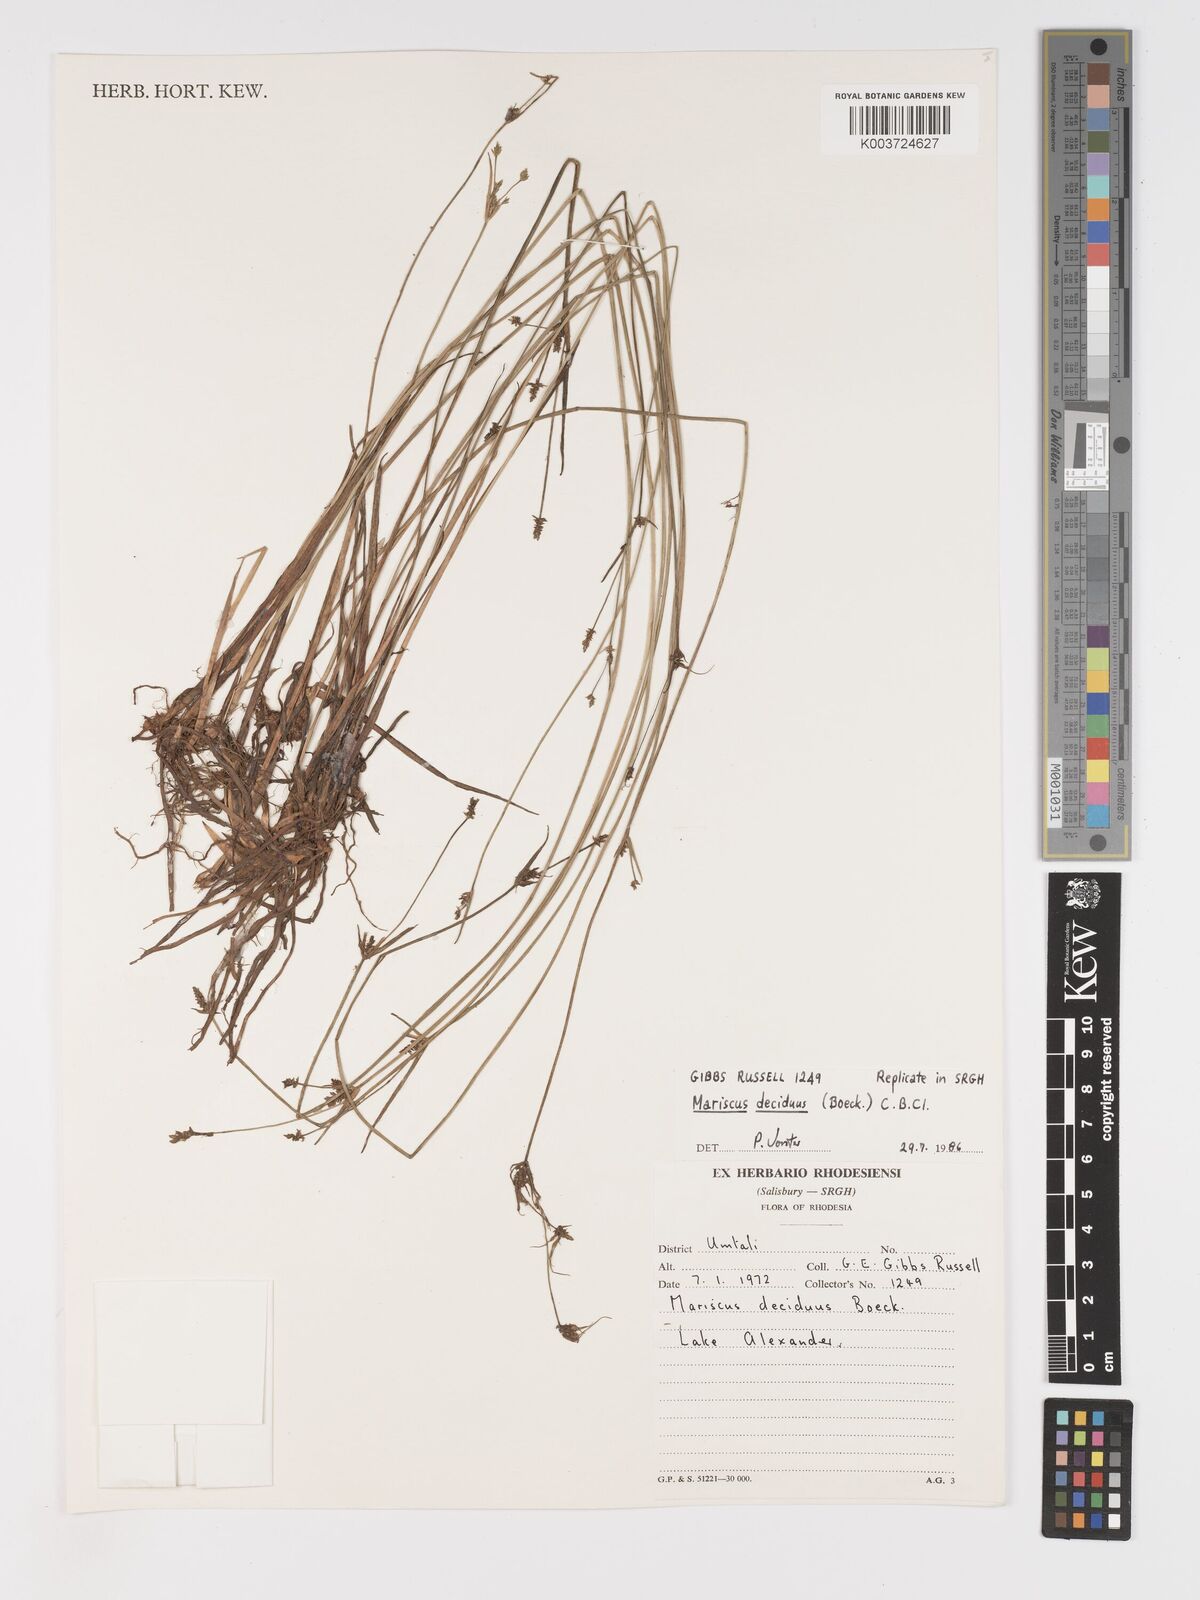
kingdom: Plantae
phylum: Tracheophyta
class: Liliopsida
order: Poales
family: Cyperaceae
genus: Cyperus
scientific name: Cyperus deciduus
